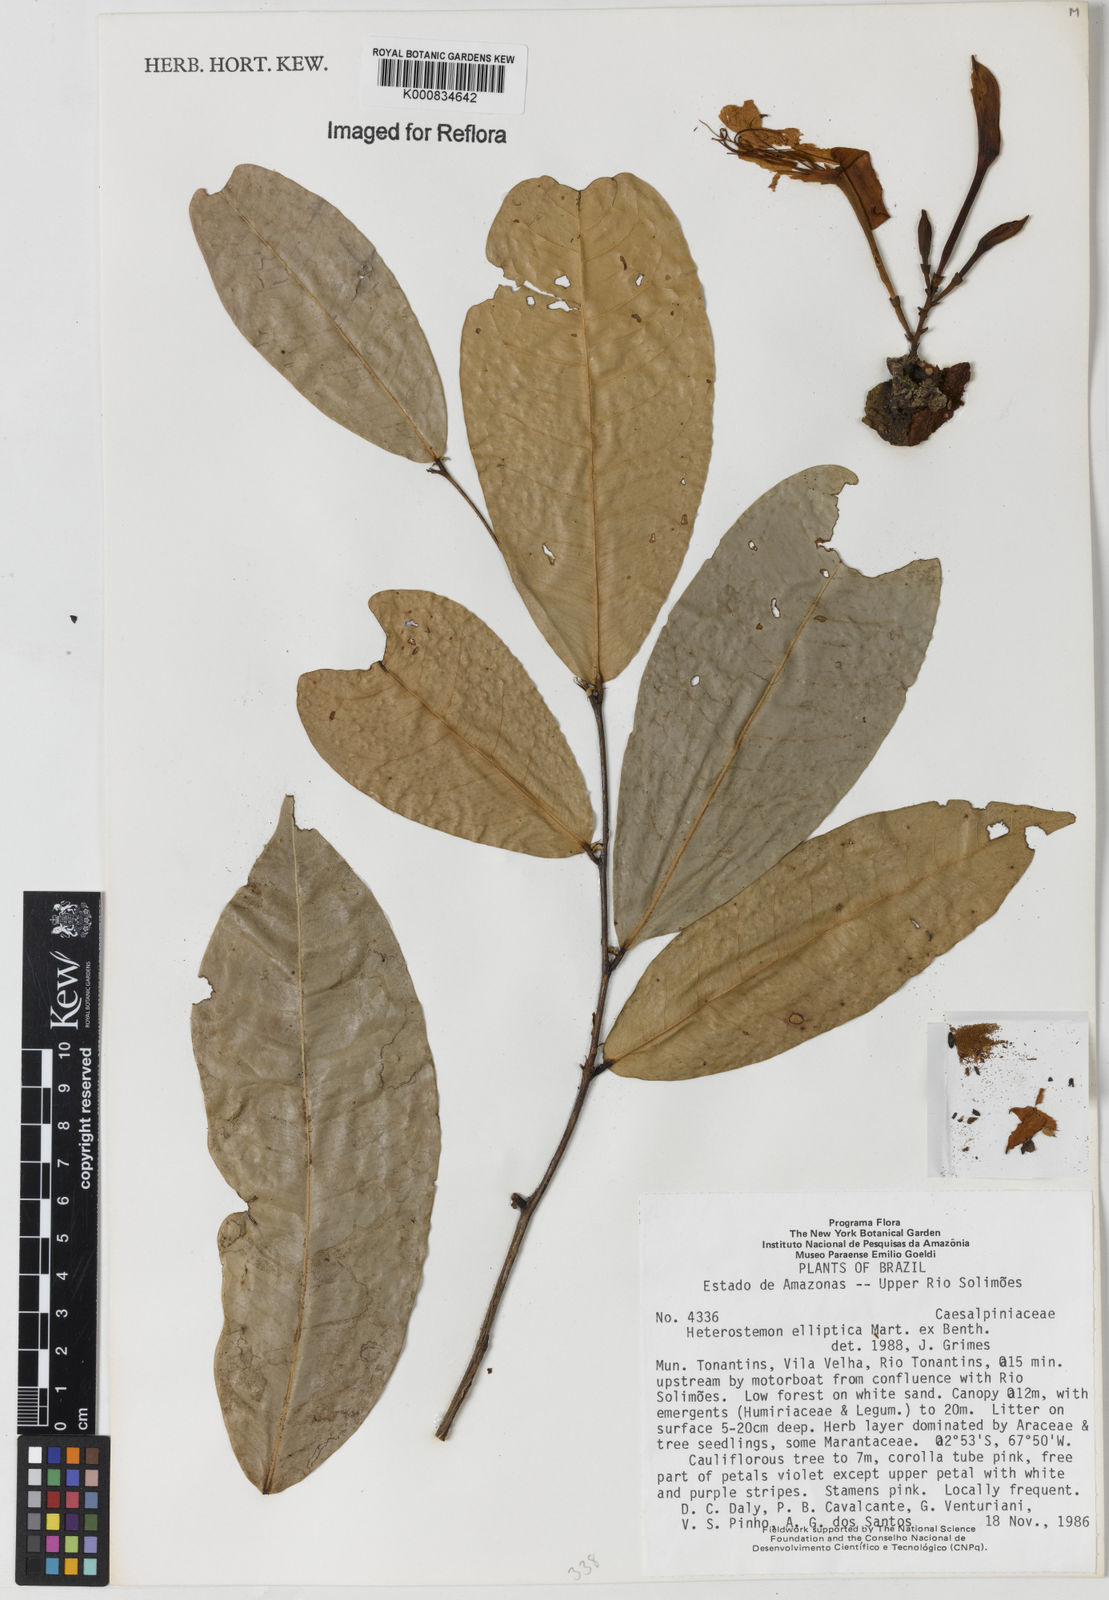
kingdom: Plantae
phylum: Tracheophyta
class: Magnoliopsida
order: Fabales
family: Fabaceae
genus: Heterostemon
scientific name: Heterostemon ellipticus
